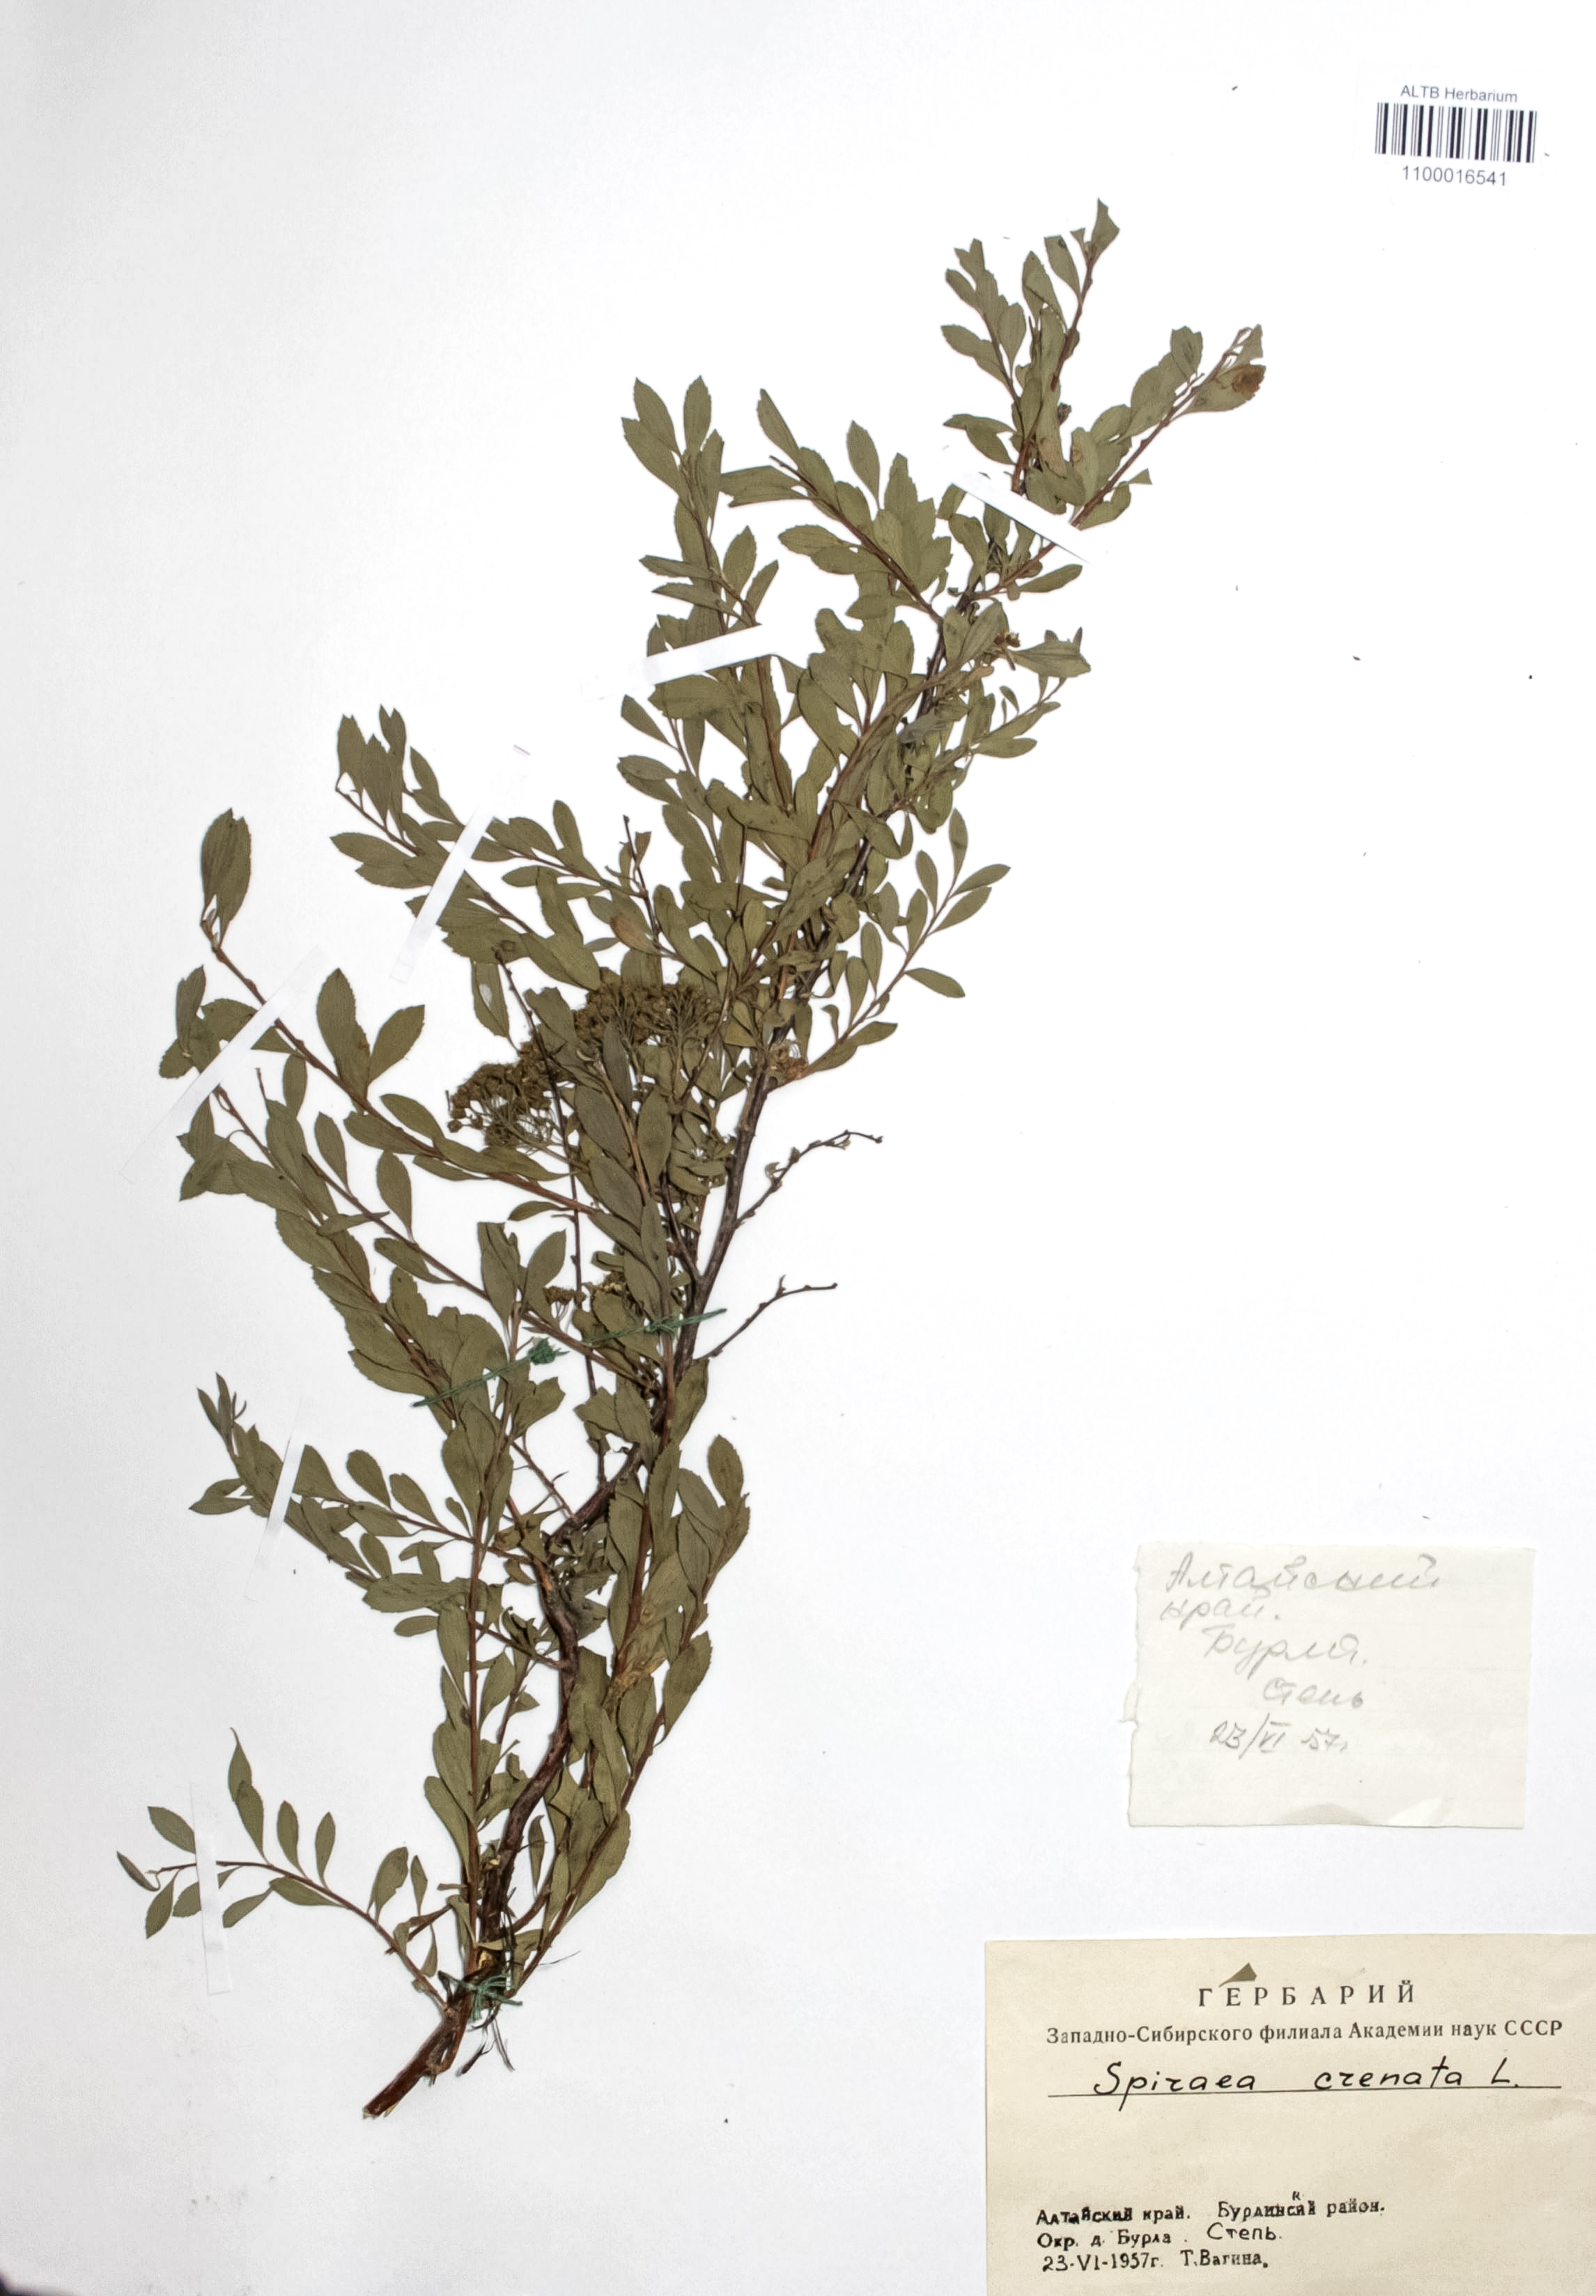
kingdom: Plantae
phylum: Tracheophyta
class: Magnoliopsida
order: Rosales
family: Rosaceae
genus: Spiraea
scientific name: Spiraea crenata
